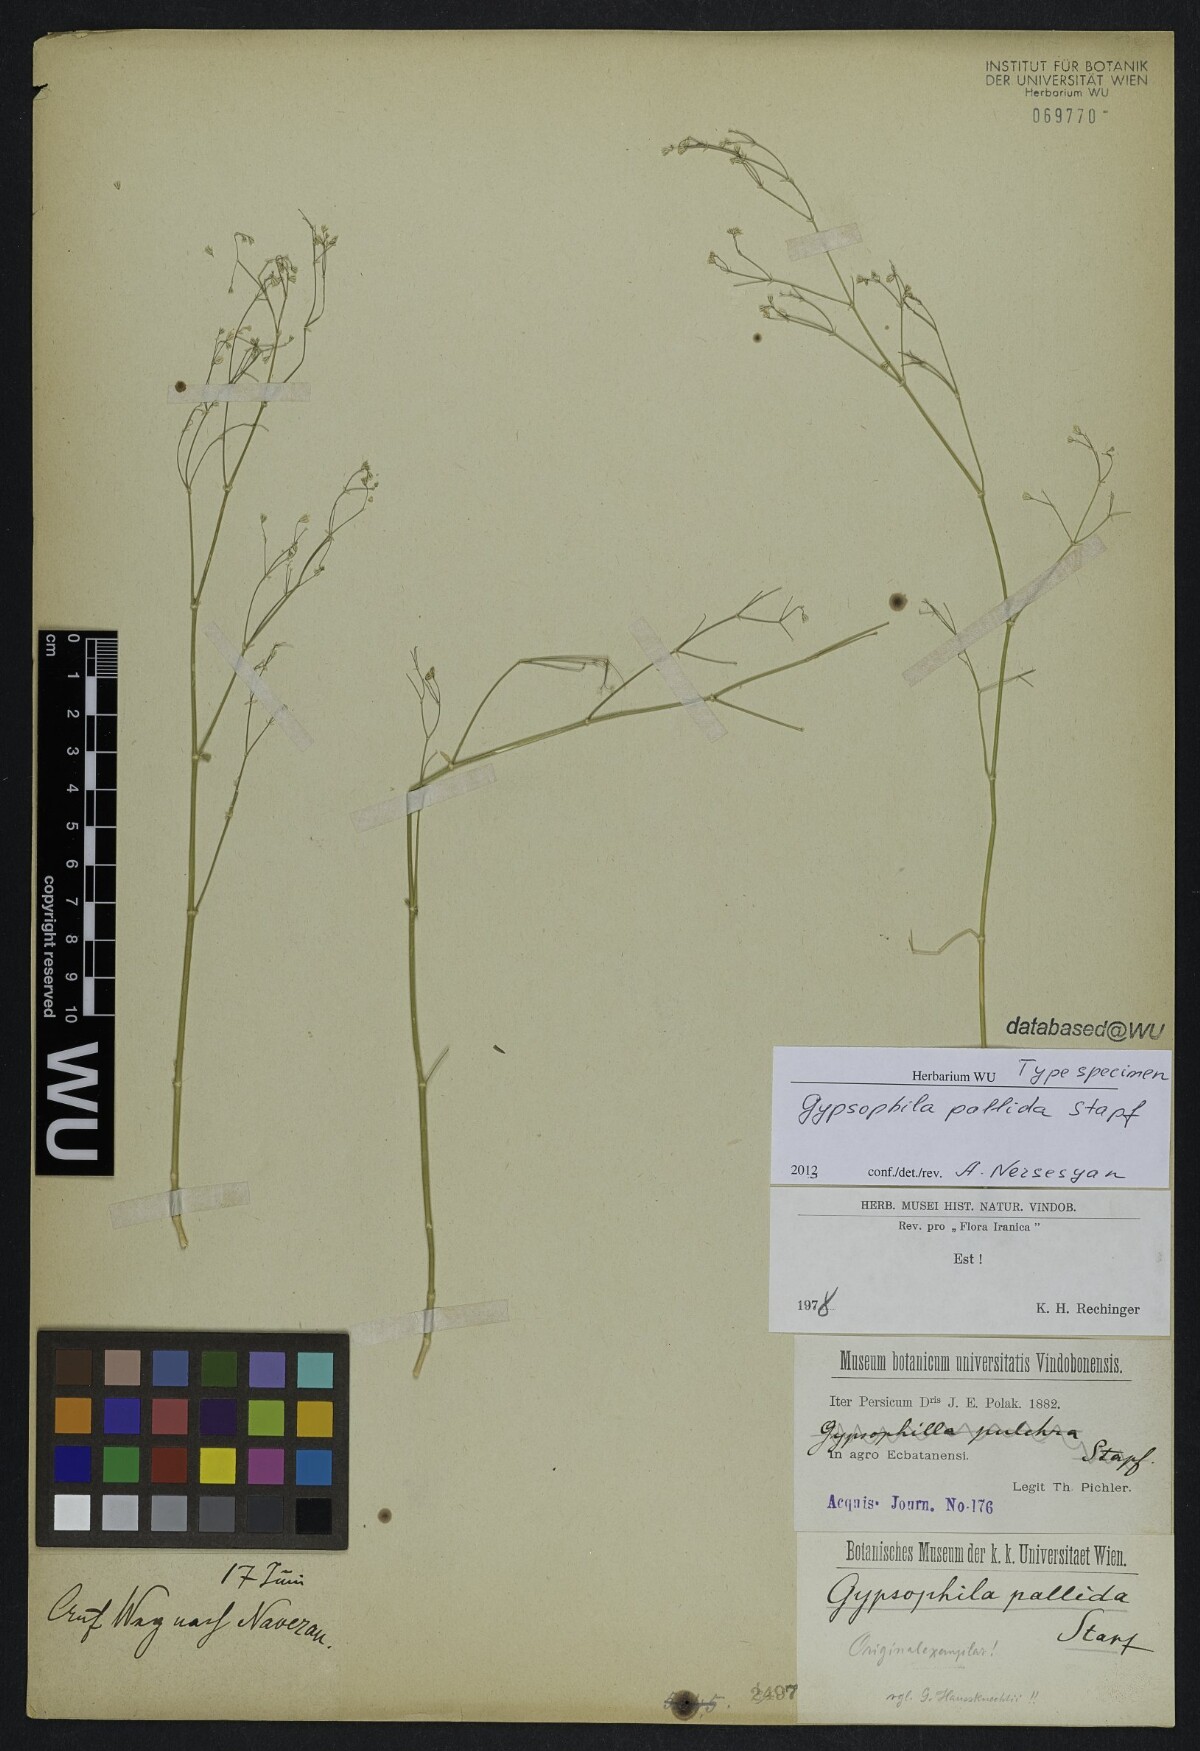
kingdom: Plantae
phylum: Tracheophyta
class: Magnoliopsida
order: Caryophyllales
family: Caryophyllaceae
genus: Gypsophila
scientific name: Gypsophila pallida
